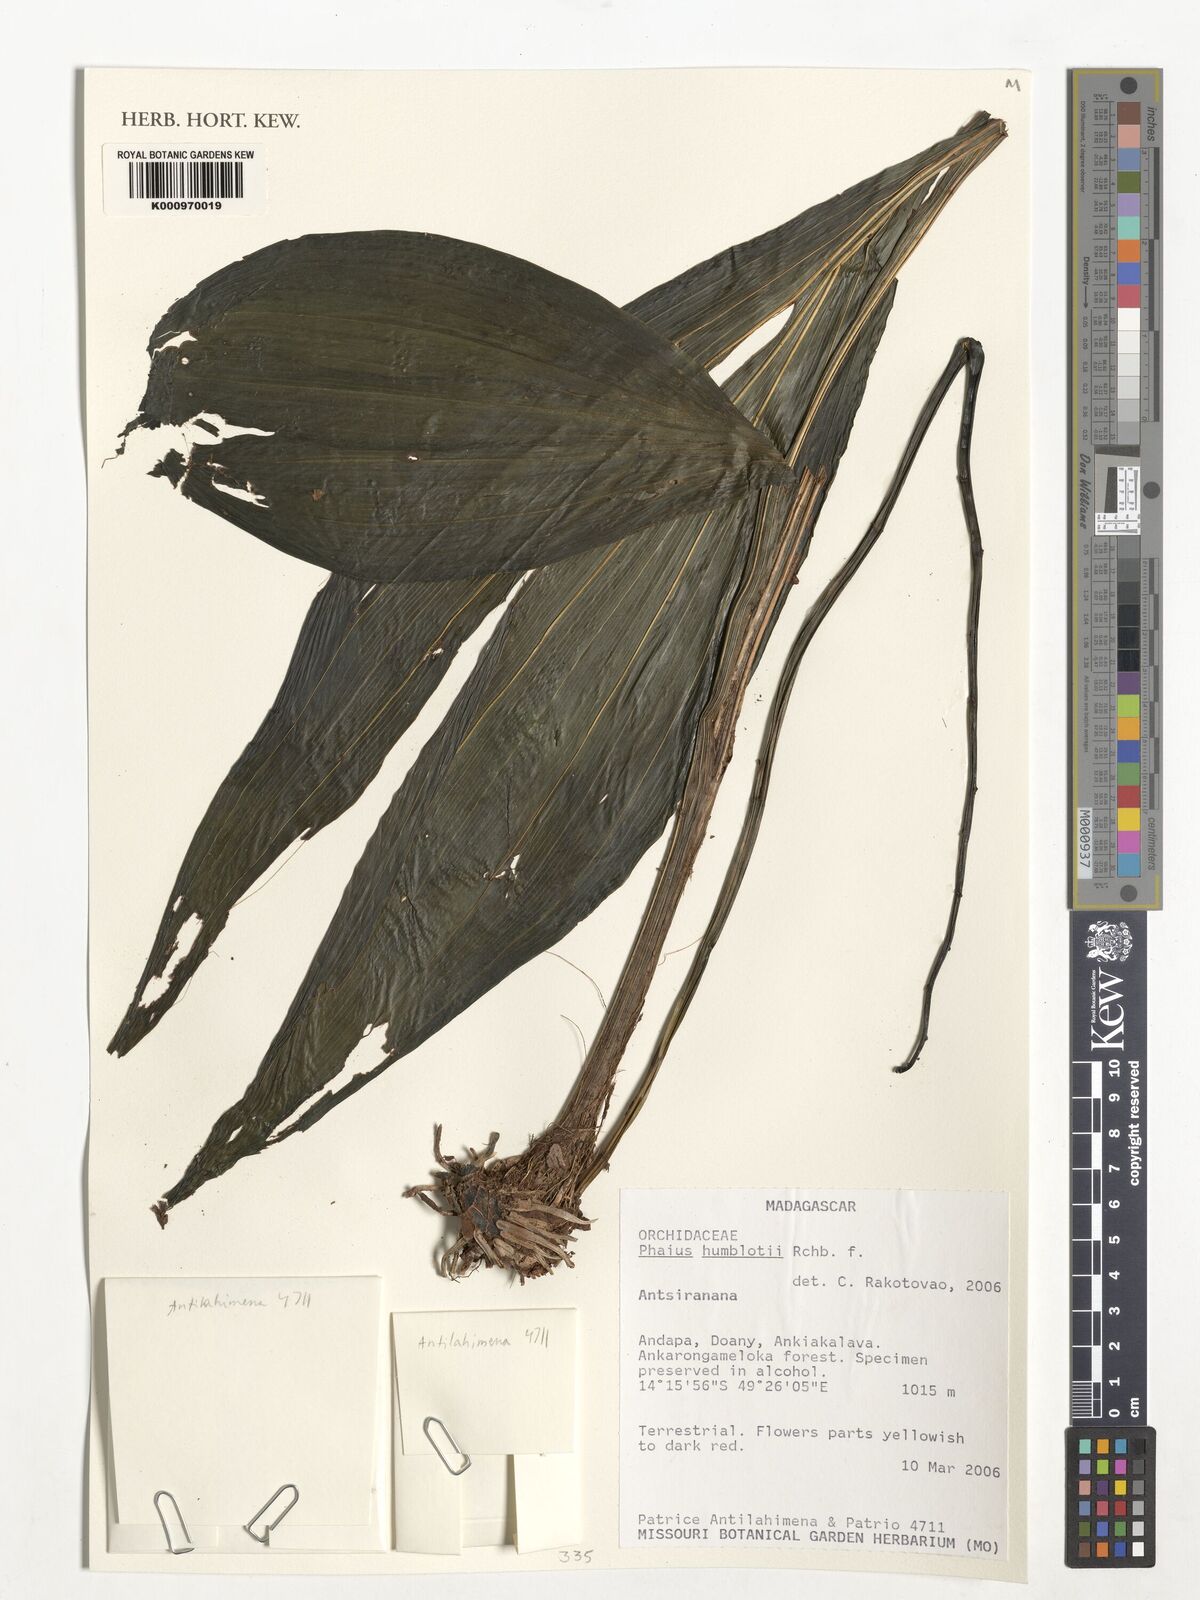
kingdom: Plantae
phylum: Tracheophyta
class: Liliopsida
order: Asparagales
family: Orchidaceae
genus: Calanthe
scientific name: Calanthe humblotii
